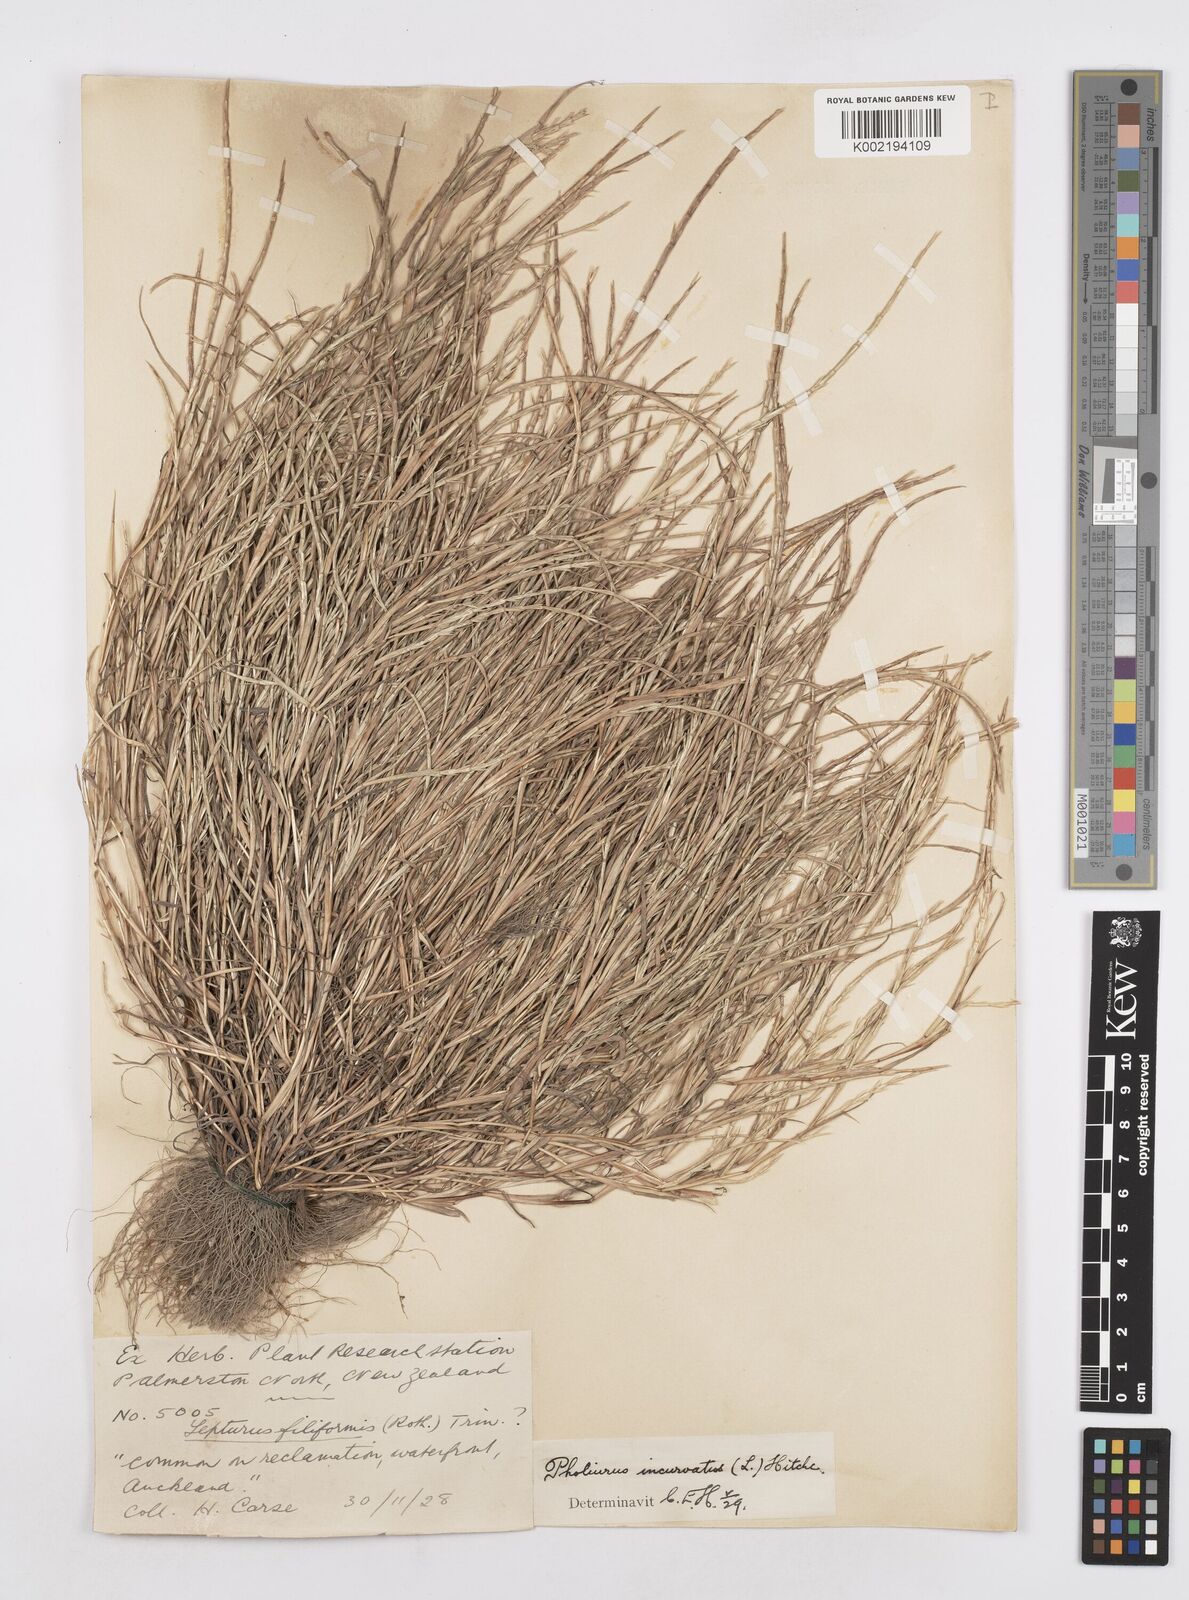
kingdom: Plantae
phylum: Tracheophyta
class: Liliopsida
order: Poales
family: Poaceae
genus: Parapholis
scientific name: Parapholis incurva
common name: Curved sicklegrass
